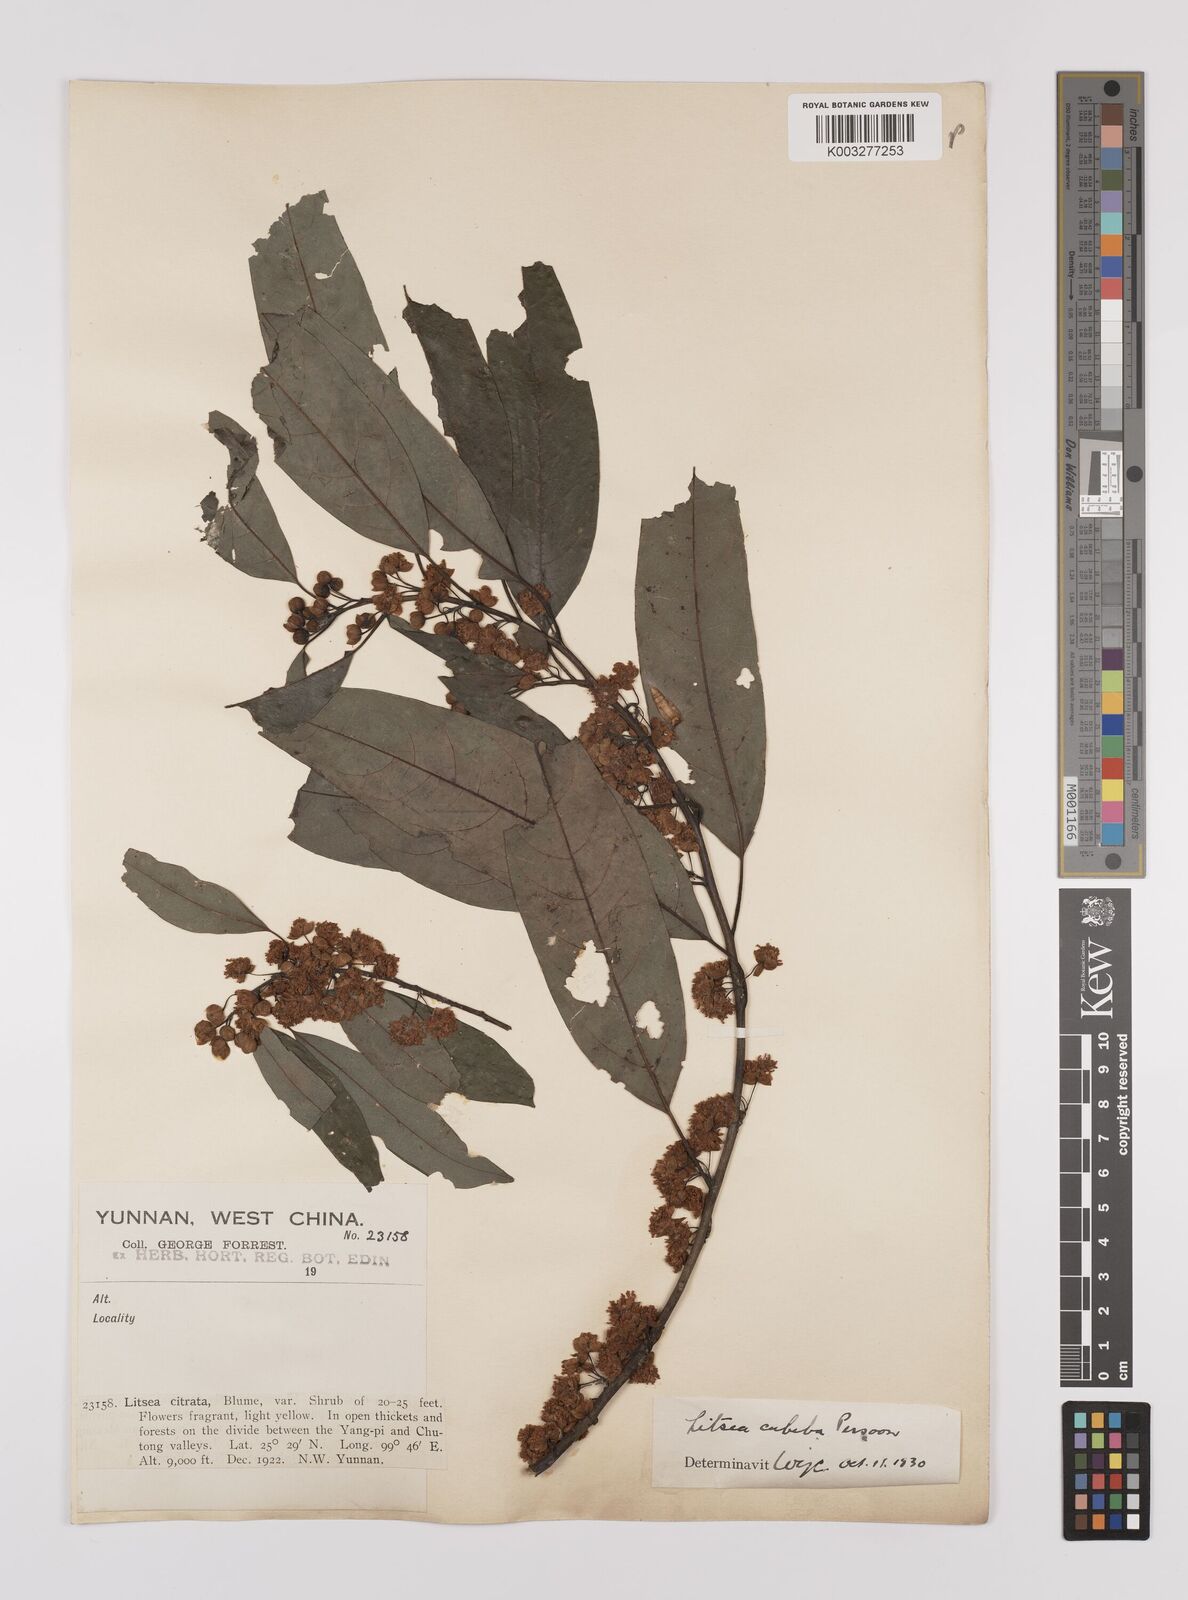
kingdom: Plantae
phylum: Tracheophyta
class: Magnoliopsida
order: Laurales
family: Lauraceae
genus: Litsea
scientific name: Litsea cubeba
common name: Mountain-pepper
